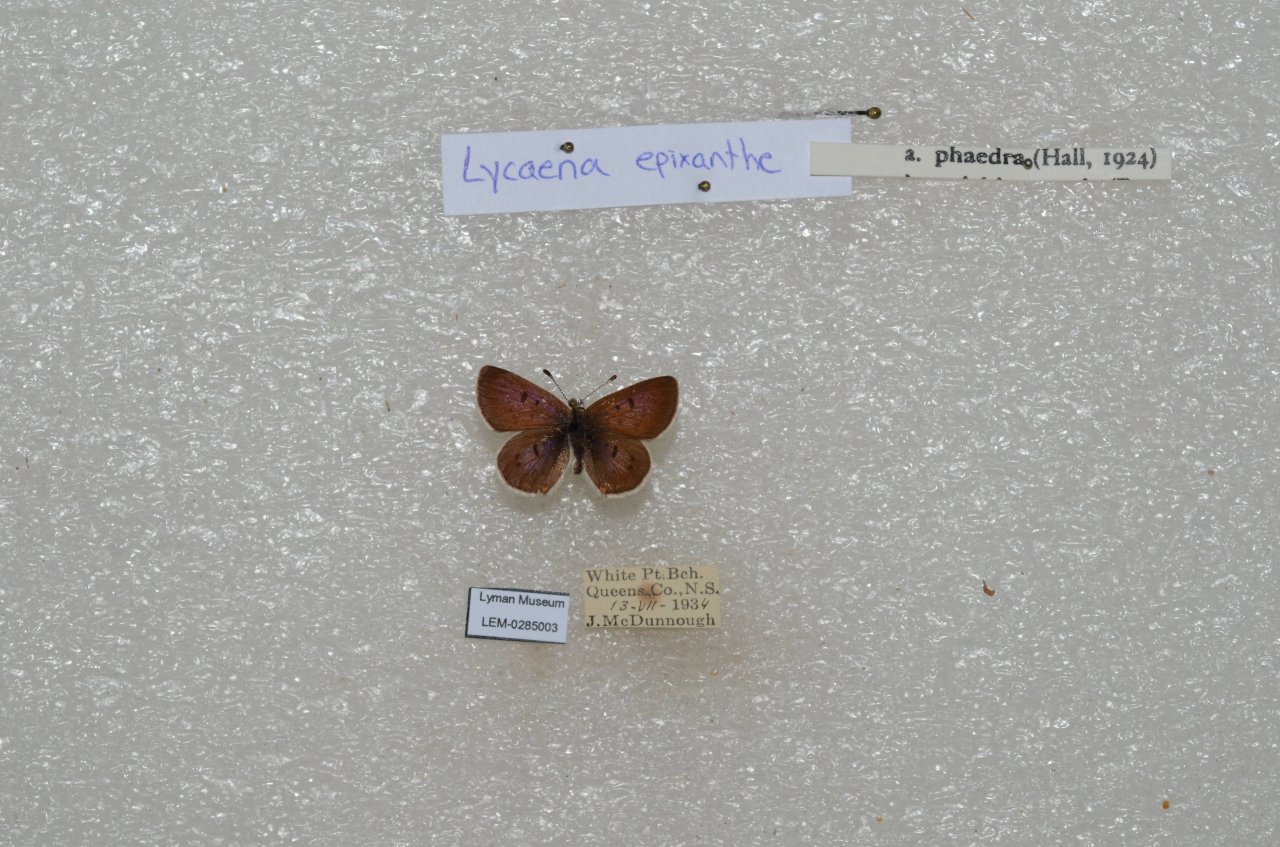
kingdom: Animalia
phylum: Arthropoda
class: Insecta
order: Lepidoptera
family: Sesiidae
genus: Sesia
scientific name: Sesia Lycaena epixanthe
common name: Bog Copper
